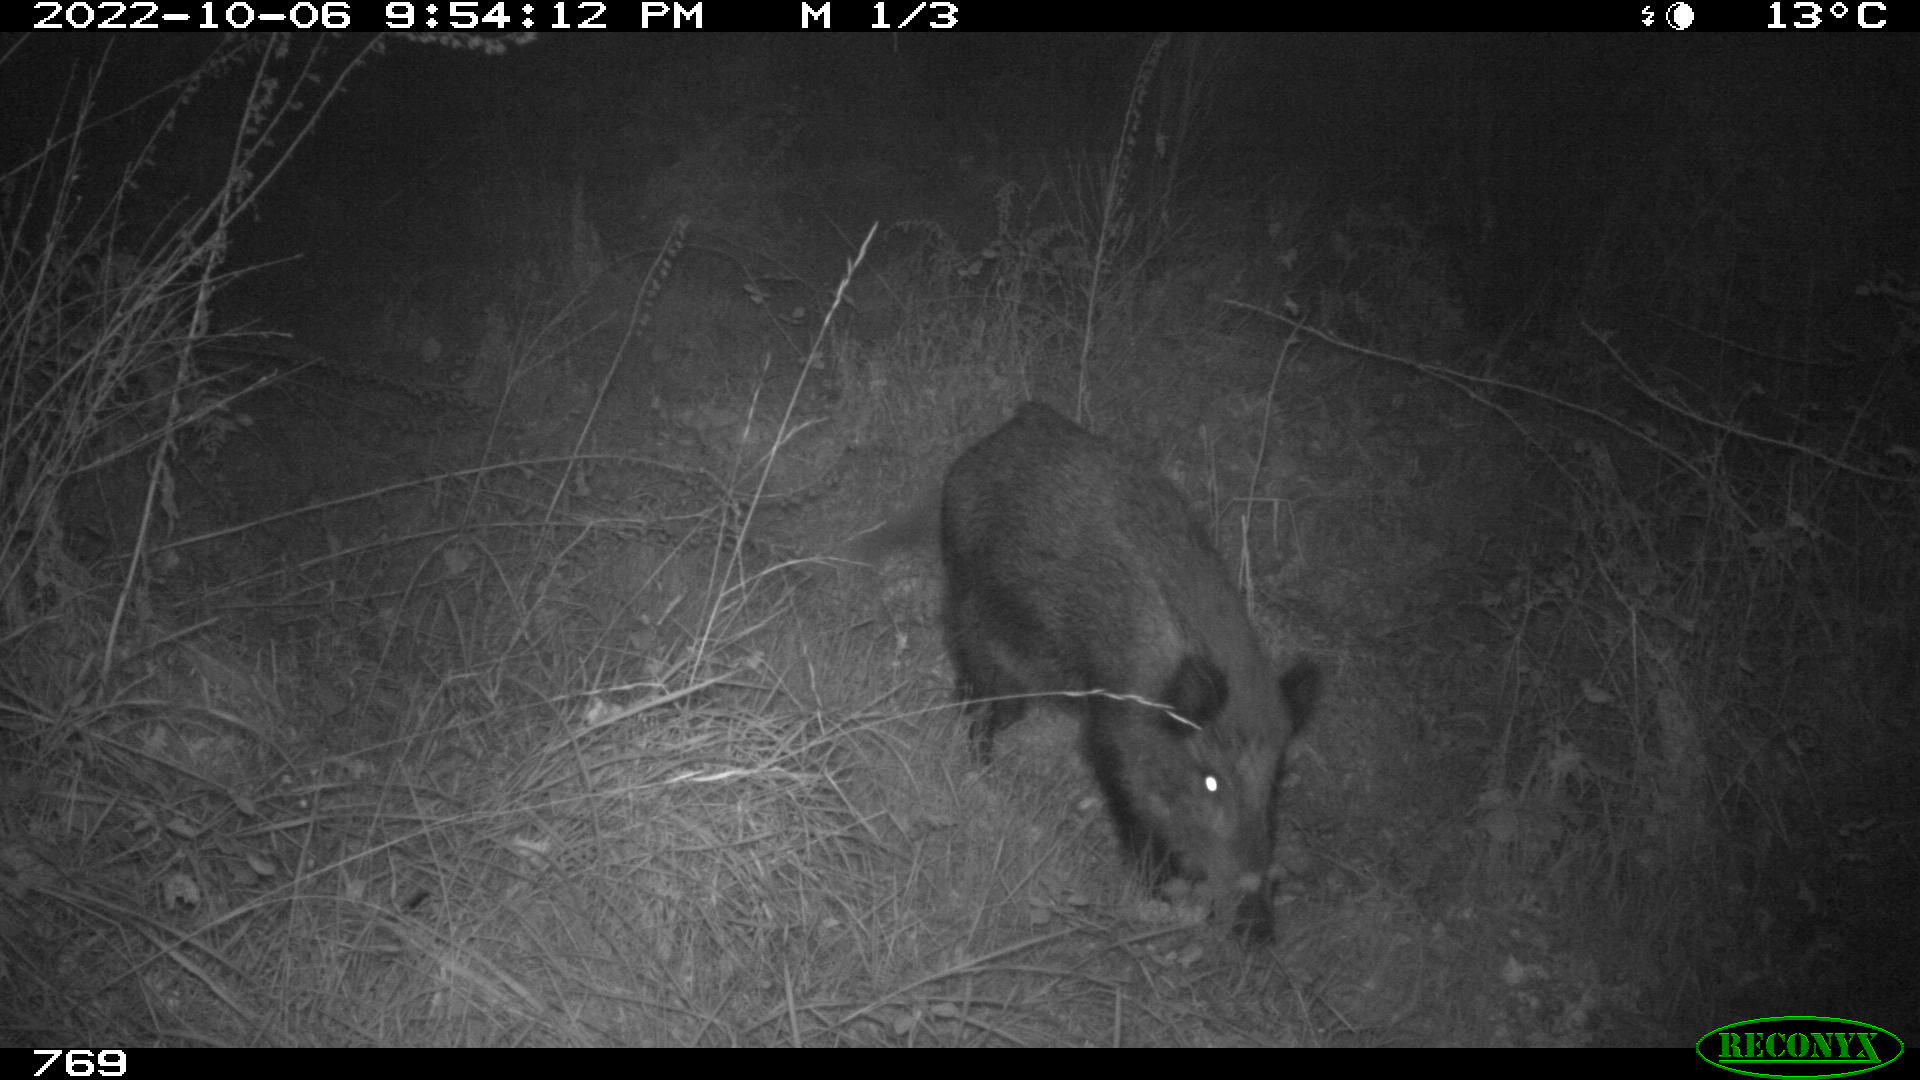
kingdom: Animalia
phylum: Chordata
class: Mammalia
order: Artiodactyla
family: Suidae
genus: Sus
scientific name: Sus scrofa
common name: Wild boar
